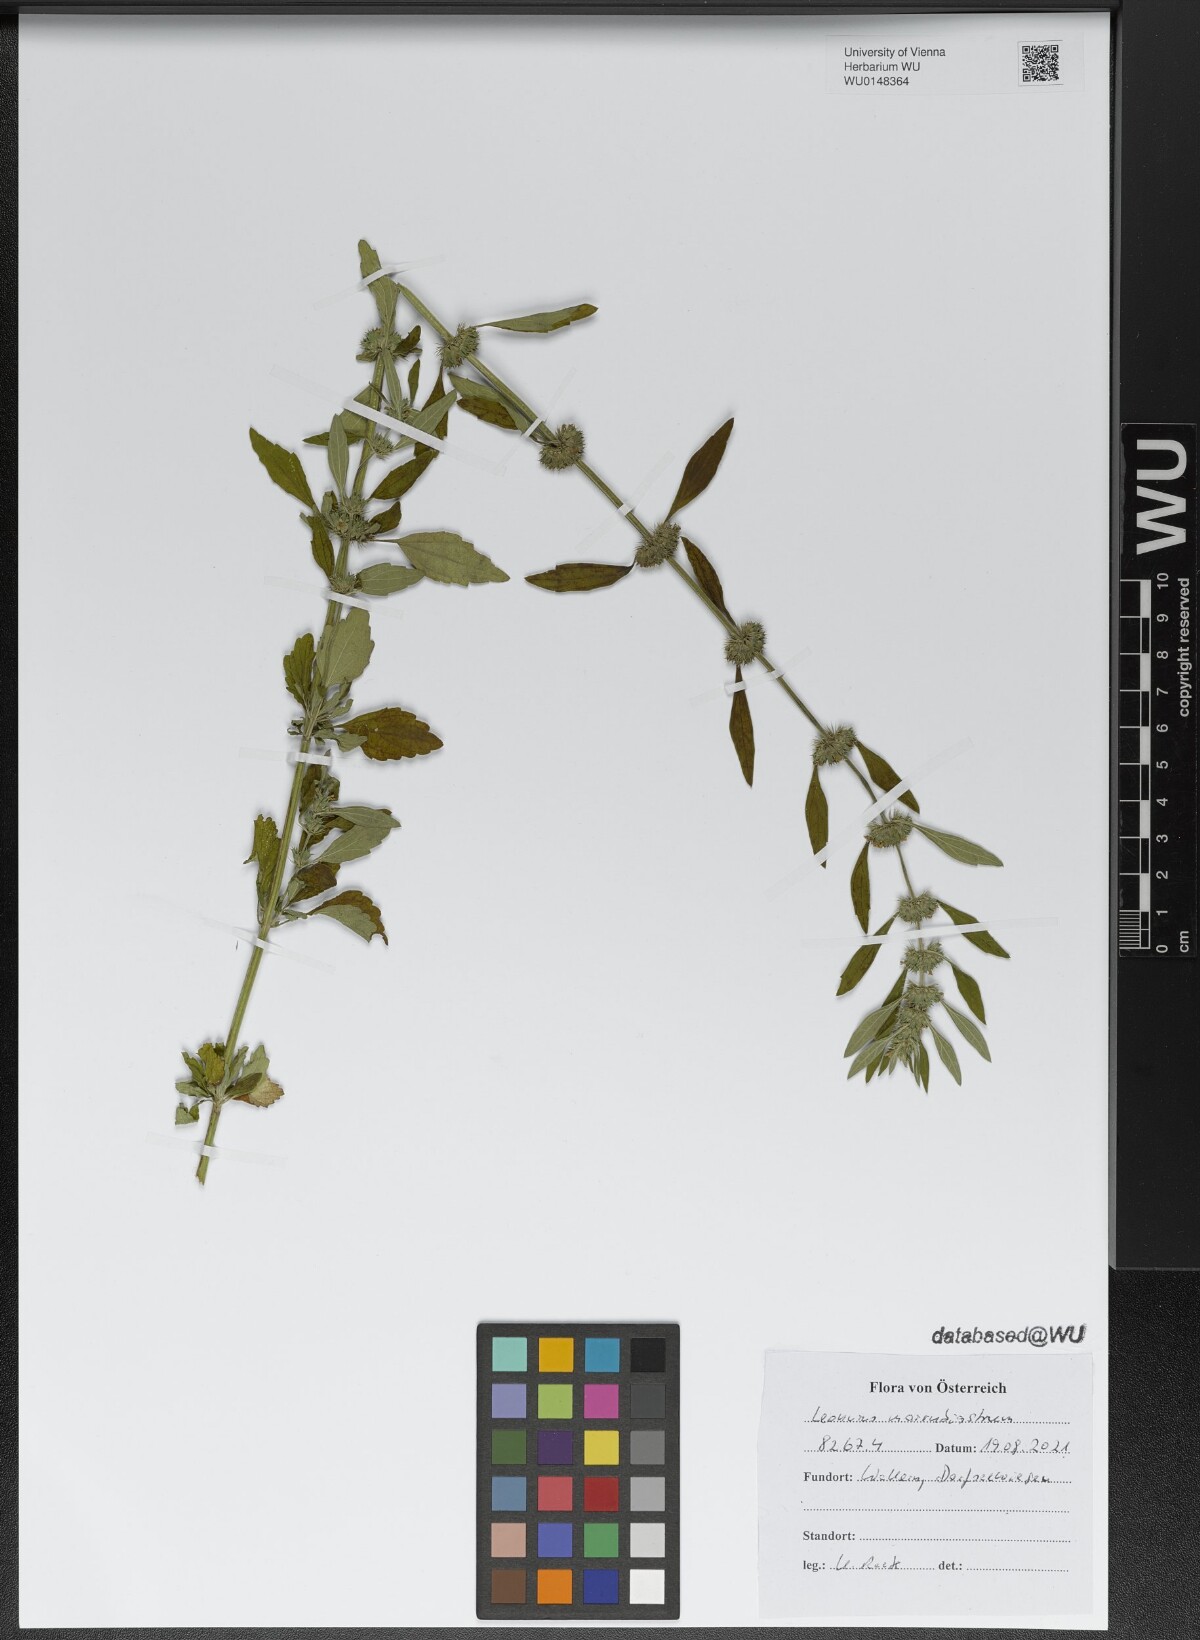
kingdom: Plantae
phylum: Tracheophyta
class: Magnoliopsida
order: Lamiales
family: Lamiaceae
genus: Chaiturus
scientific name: Chaiturus marrubiastrum
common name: Lion's tail
